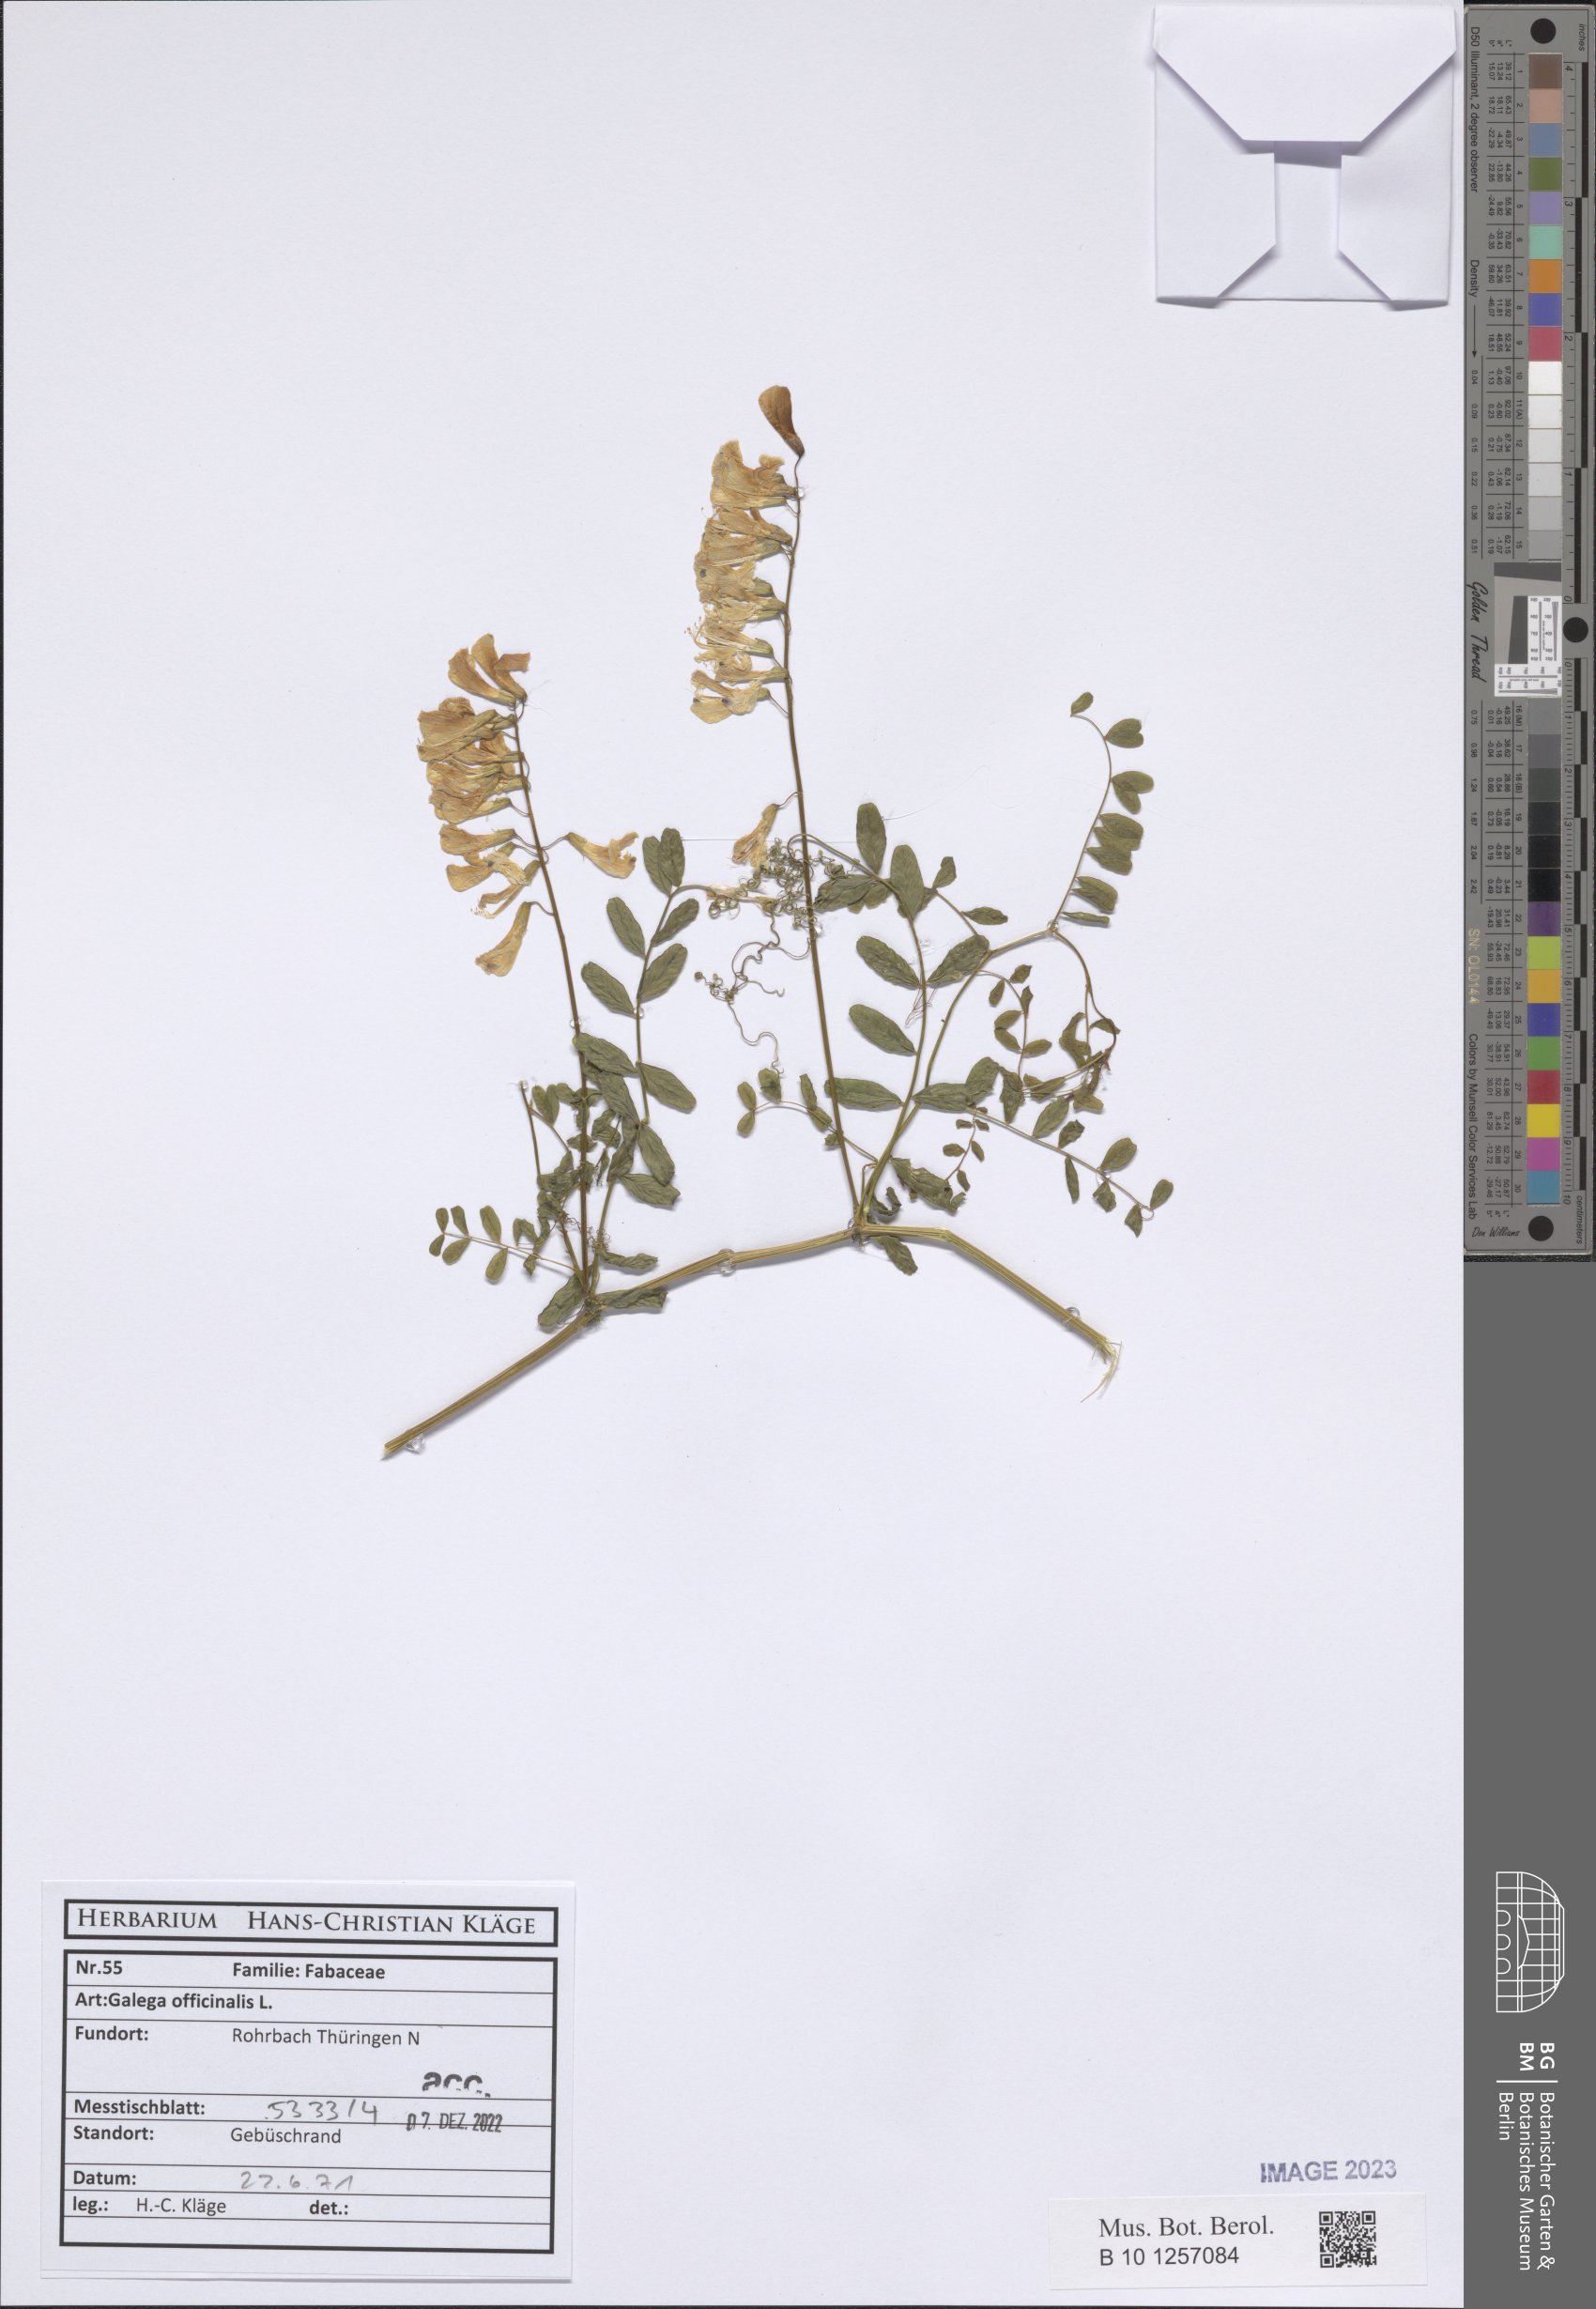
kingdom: Plantae
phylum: Tracheophyta
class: Magnoliopsida
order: Fabales
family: Fabaceae
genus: Galega
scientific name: Galega officinalis
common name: Goat's-rue
